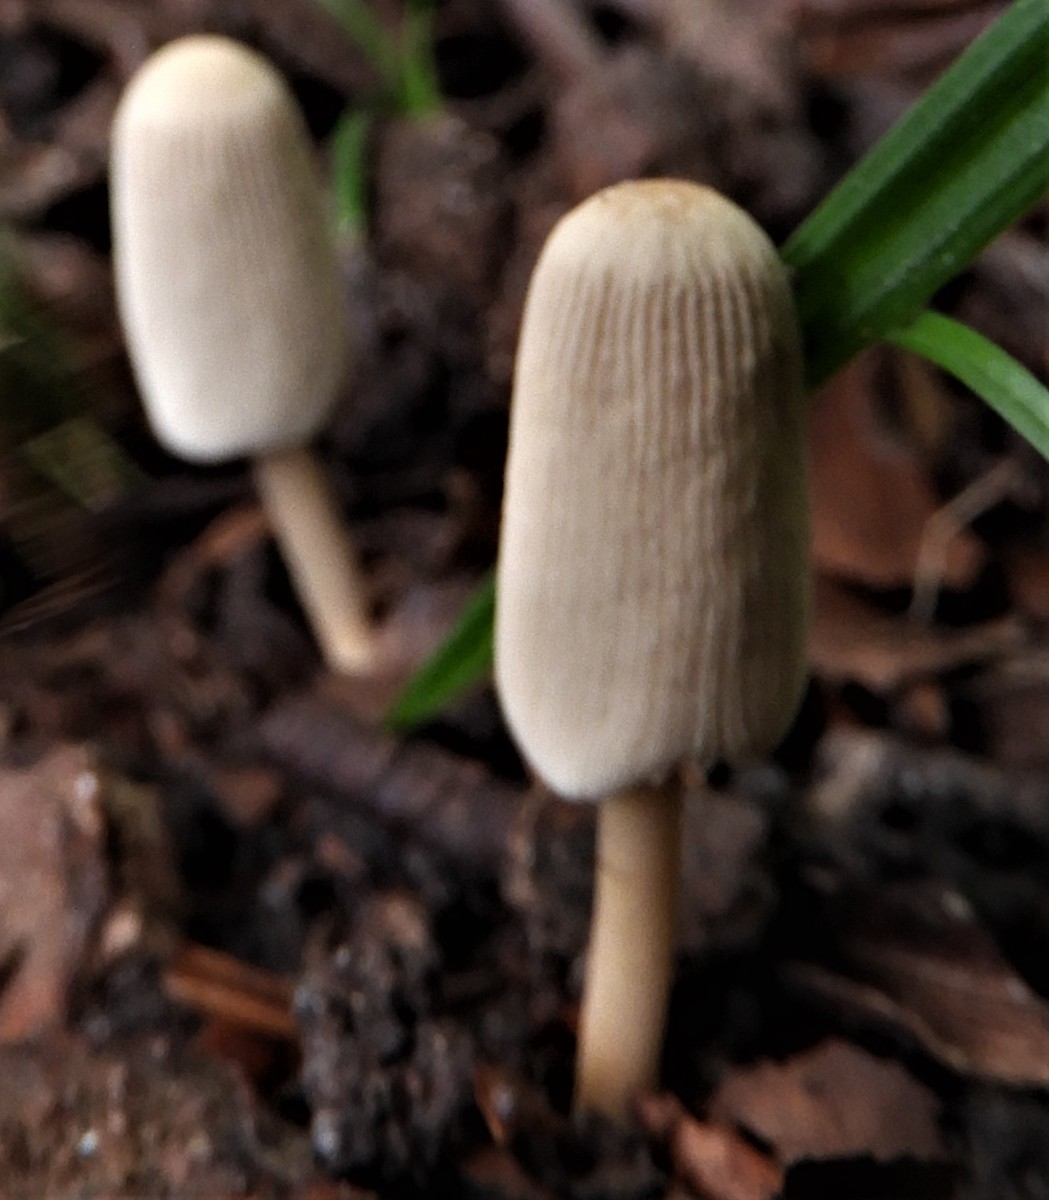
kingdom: Fungi
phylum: Basidiomycota
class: Agaricomycetes
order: Agaricales
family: Psathyrellaceae
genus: Parasola
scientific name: Parasola
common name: hjulhat
